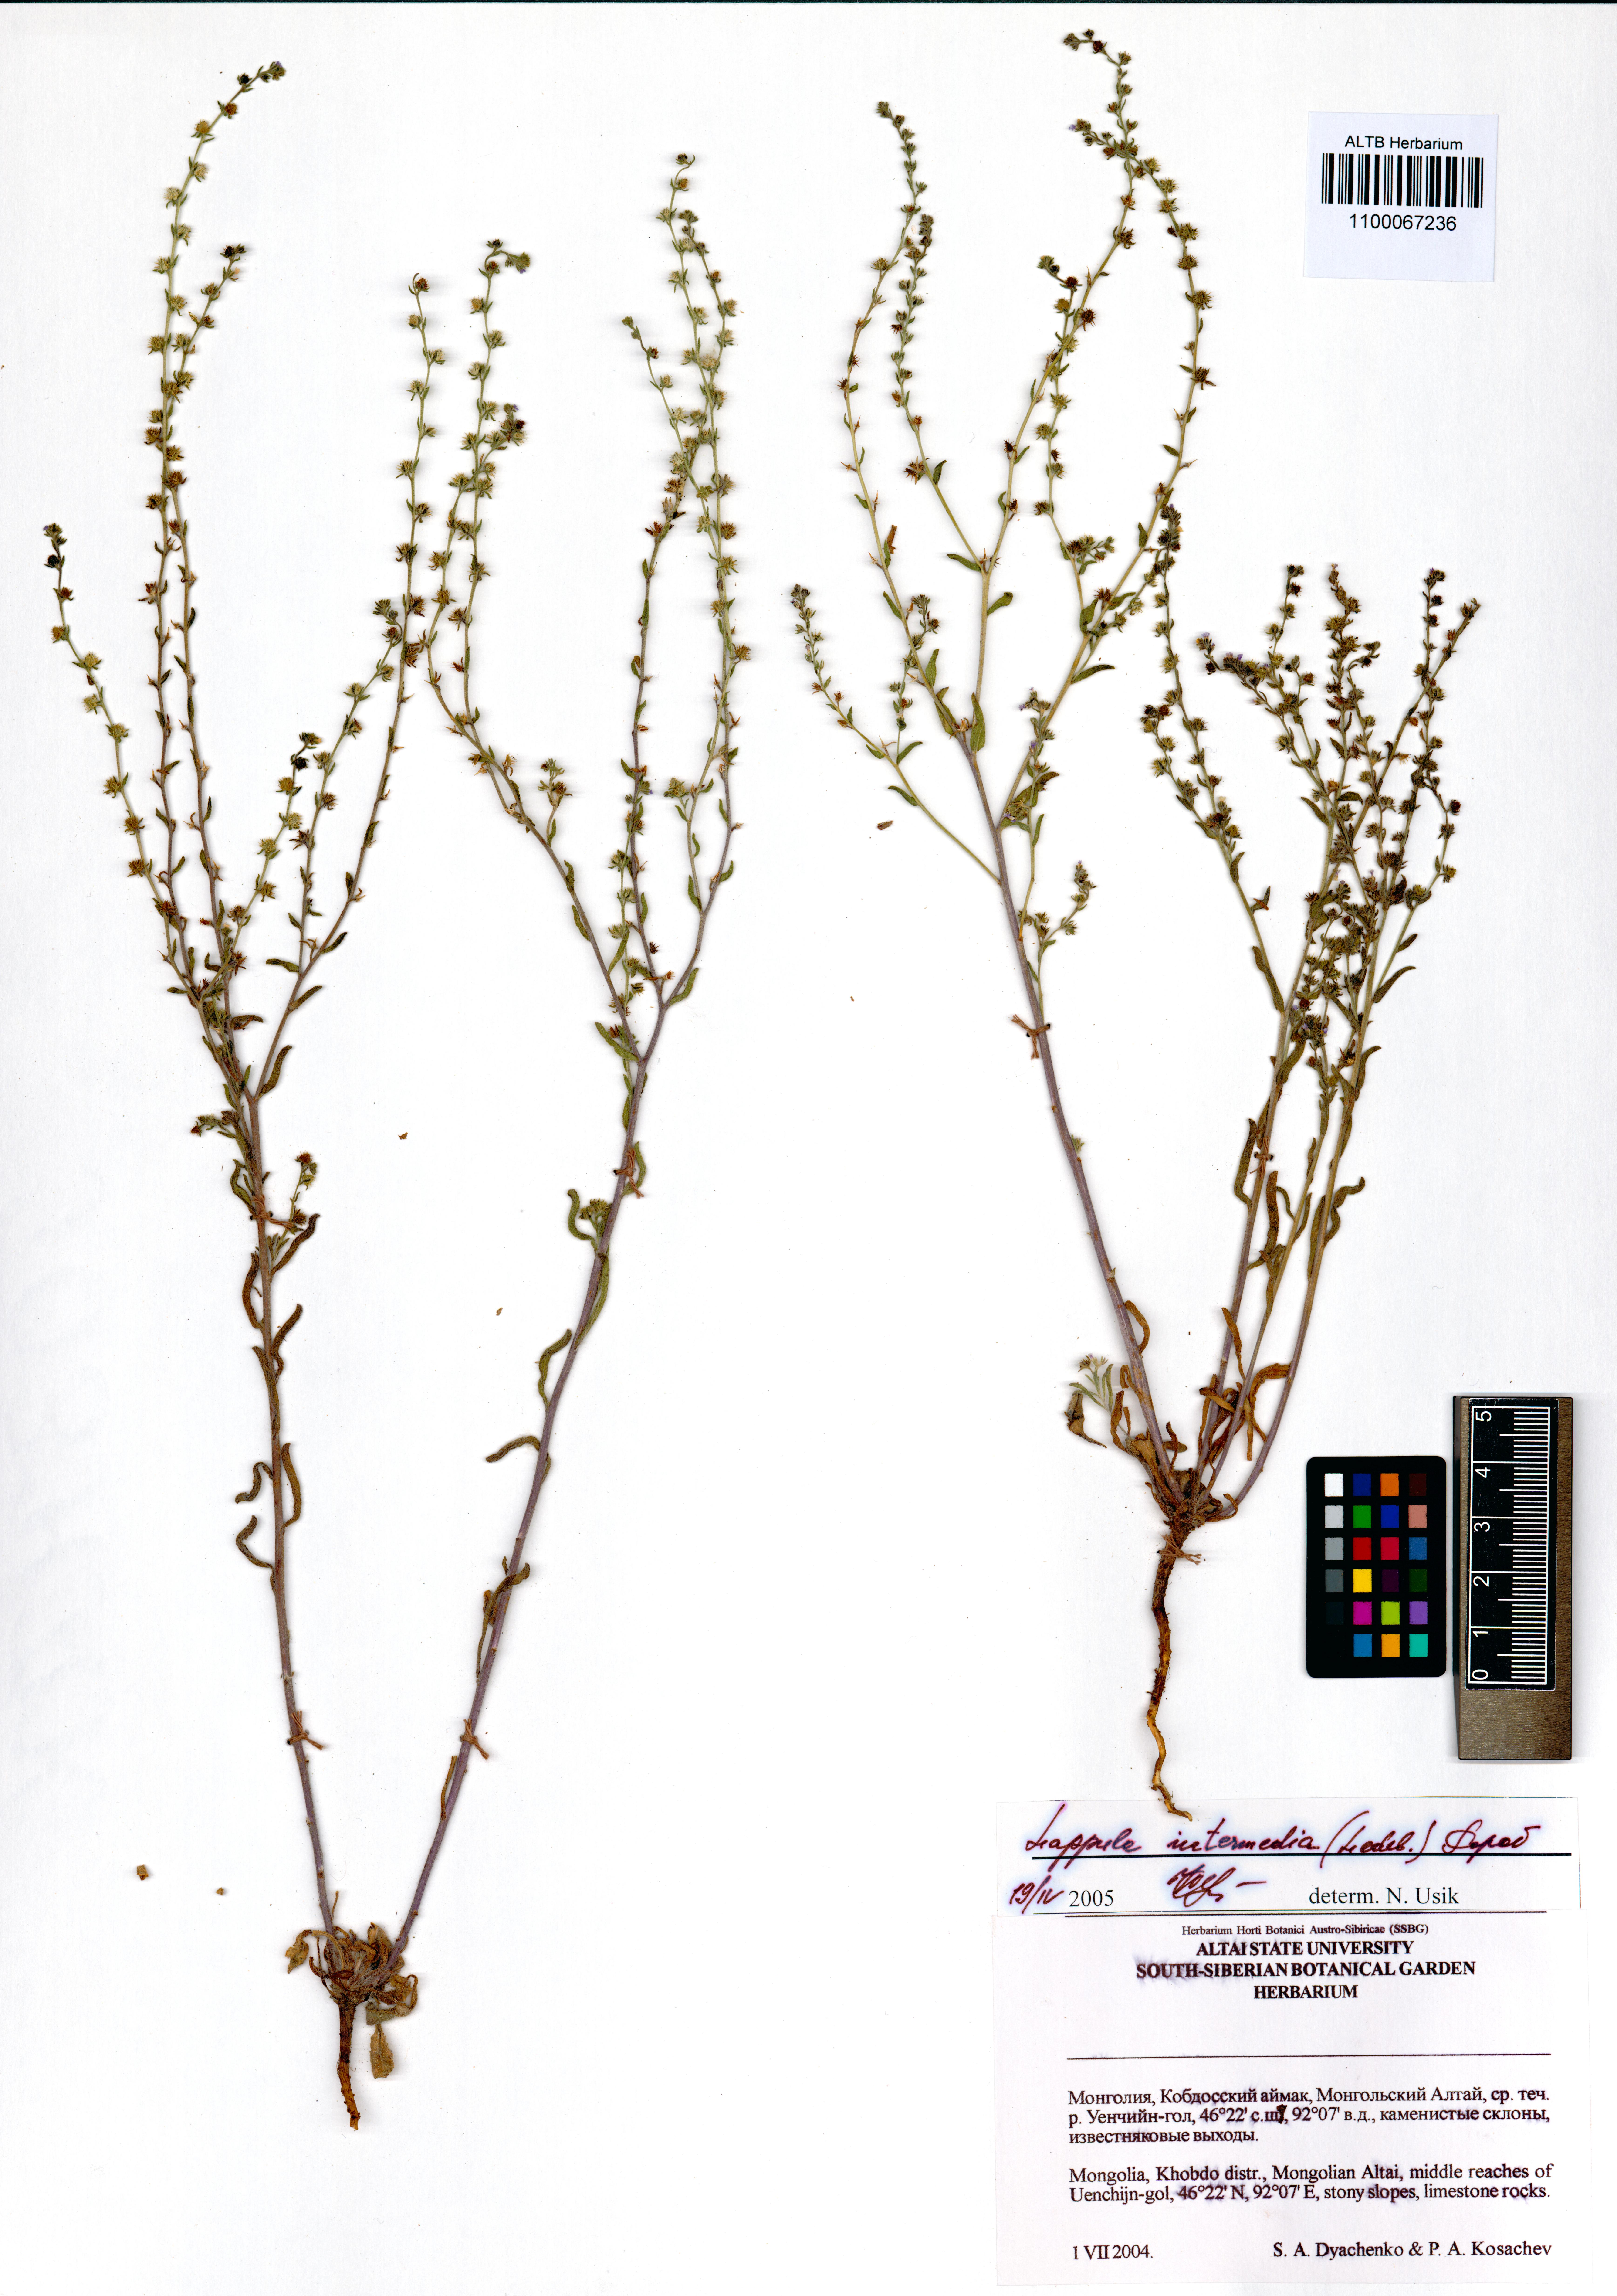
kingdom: Plantae
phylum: Tracheophyta
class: Magnoliopsida
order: Boraginales
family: Boraginaceae
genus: Lappula
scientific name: Lappula intermedia
